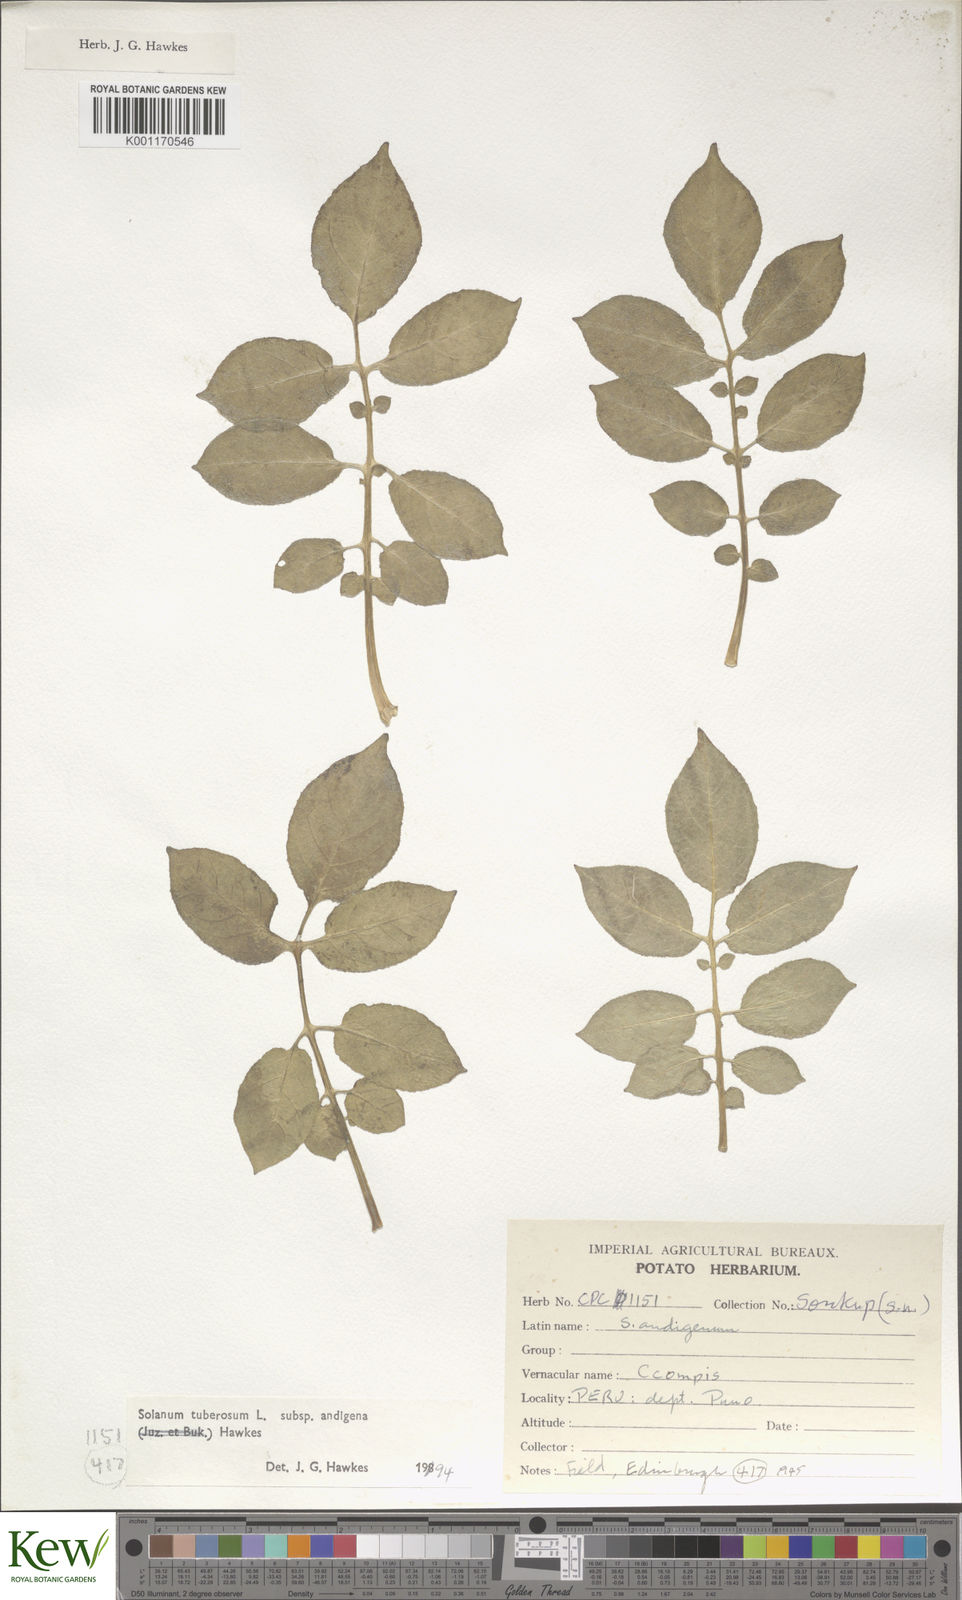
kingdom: Plantae
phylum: Tracheophyta
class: Magnoliopsida
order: Solanales
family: Solanaceae
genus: Solanum
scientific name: Solanum tuberosum
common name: Potato
